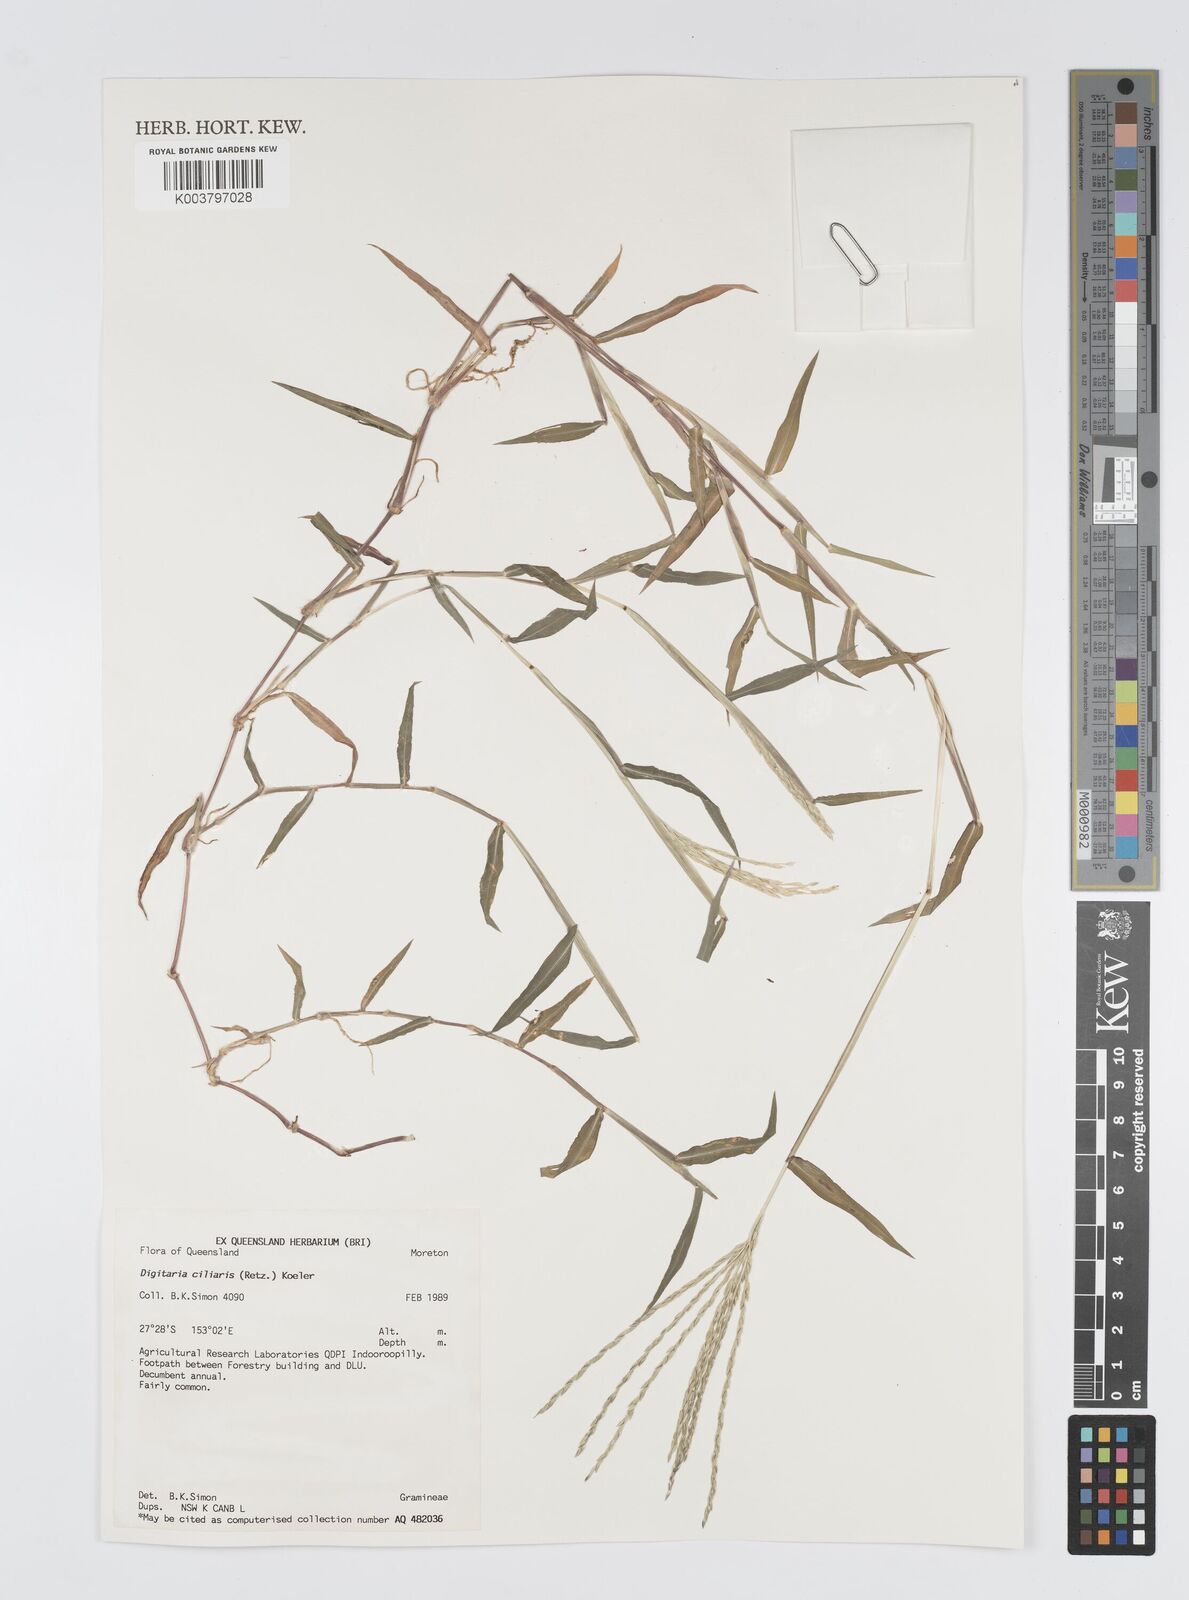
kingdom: Plantae
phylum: Tracheophyta
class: Liliopsida
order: Poales
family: Poaceae
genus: Digitaria
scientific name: Digitaria ciliaris
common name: Tropical finger-grass
